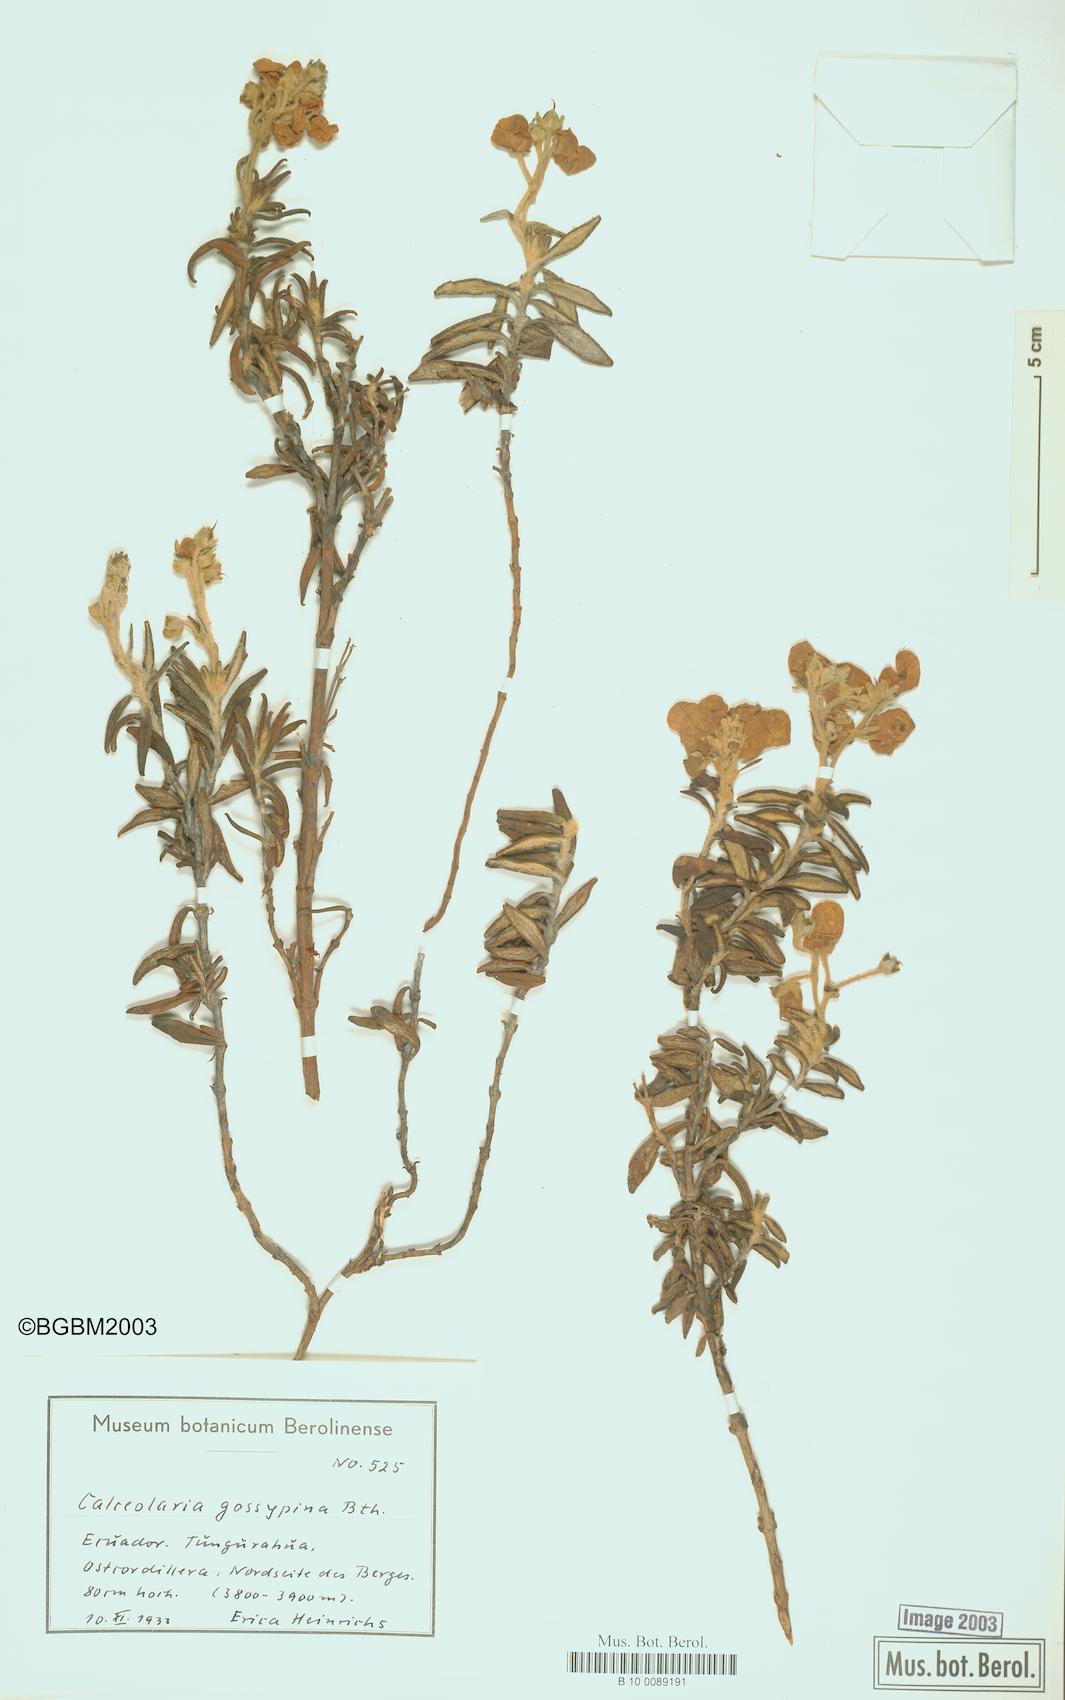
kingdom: Plantae
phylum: Tracheophyta
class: Magnoliopsida
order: Lamiales
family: Calceolariaceae
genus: Calceolaria
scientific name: Calceolaria gossypina
